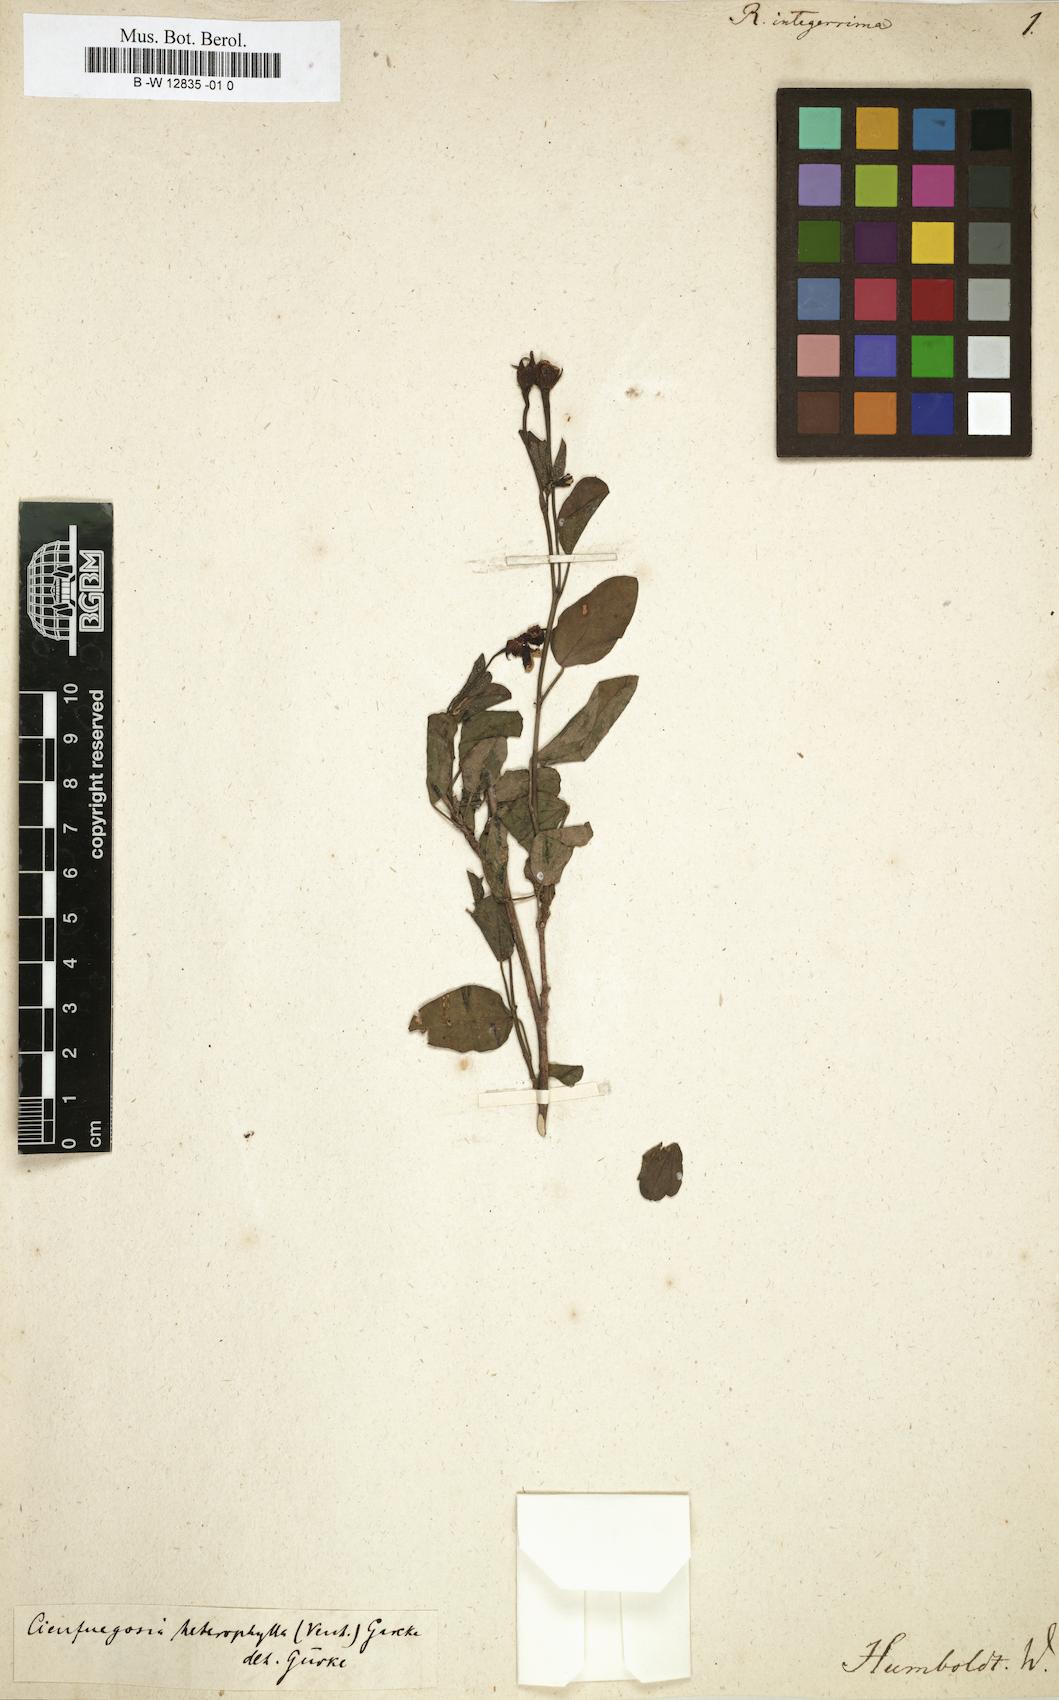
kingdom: Plantae
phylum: Tracheophyta
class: Magnoliopsida
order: Malvales
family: Malvaceae
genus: Cienfuegosia
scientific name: Cienfuegosia
